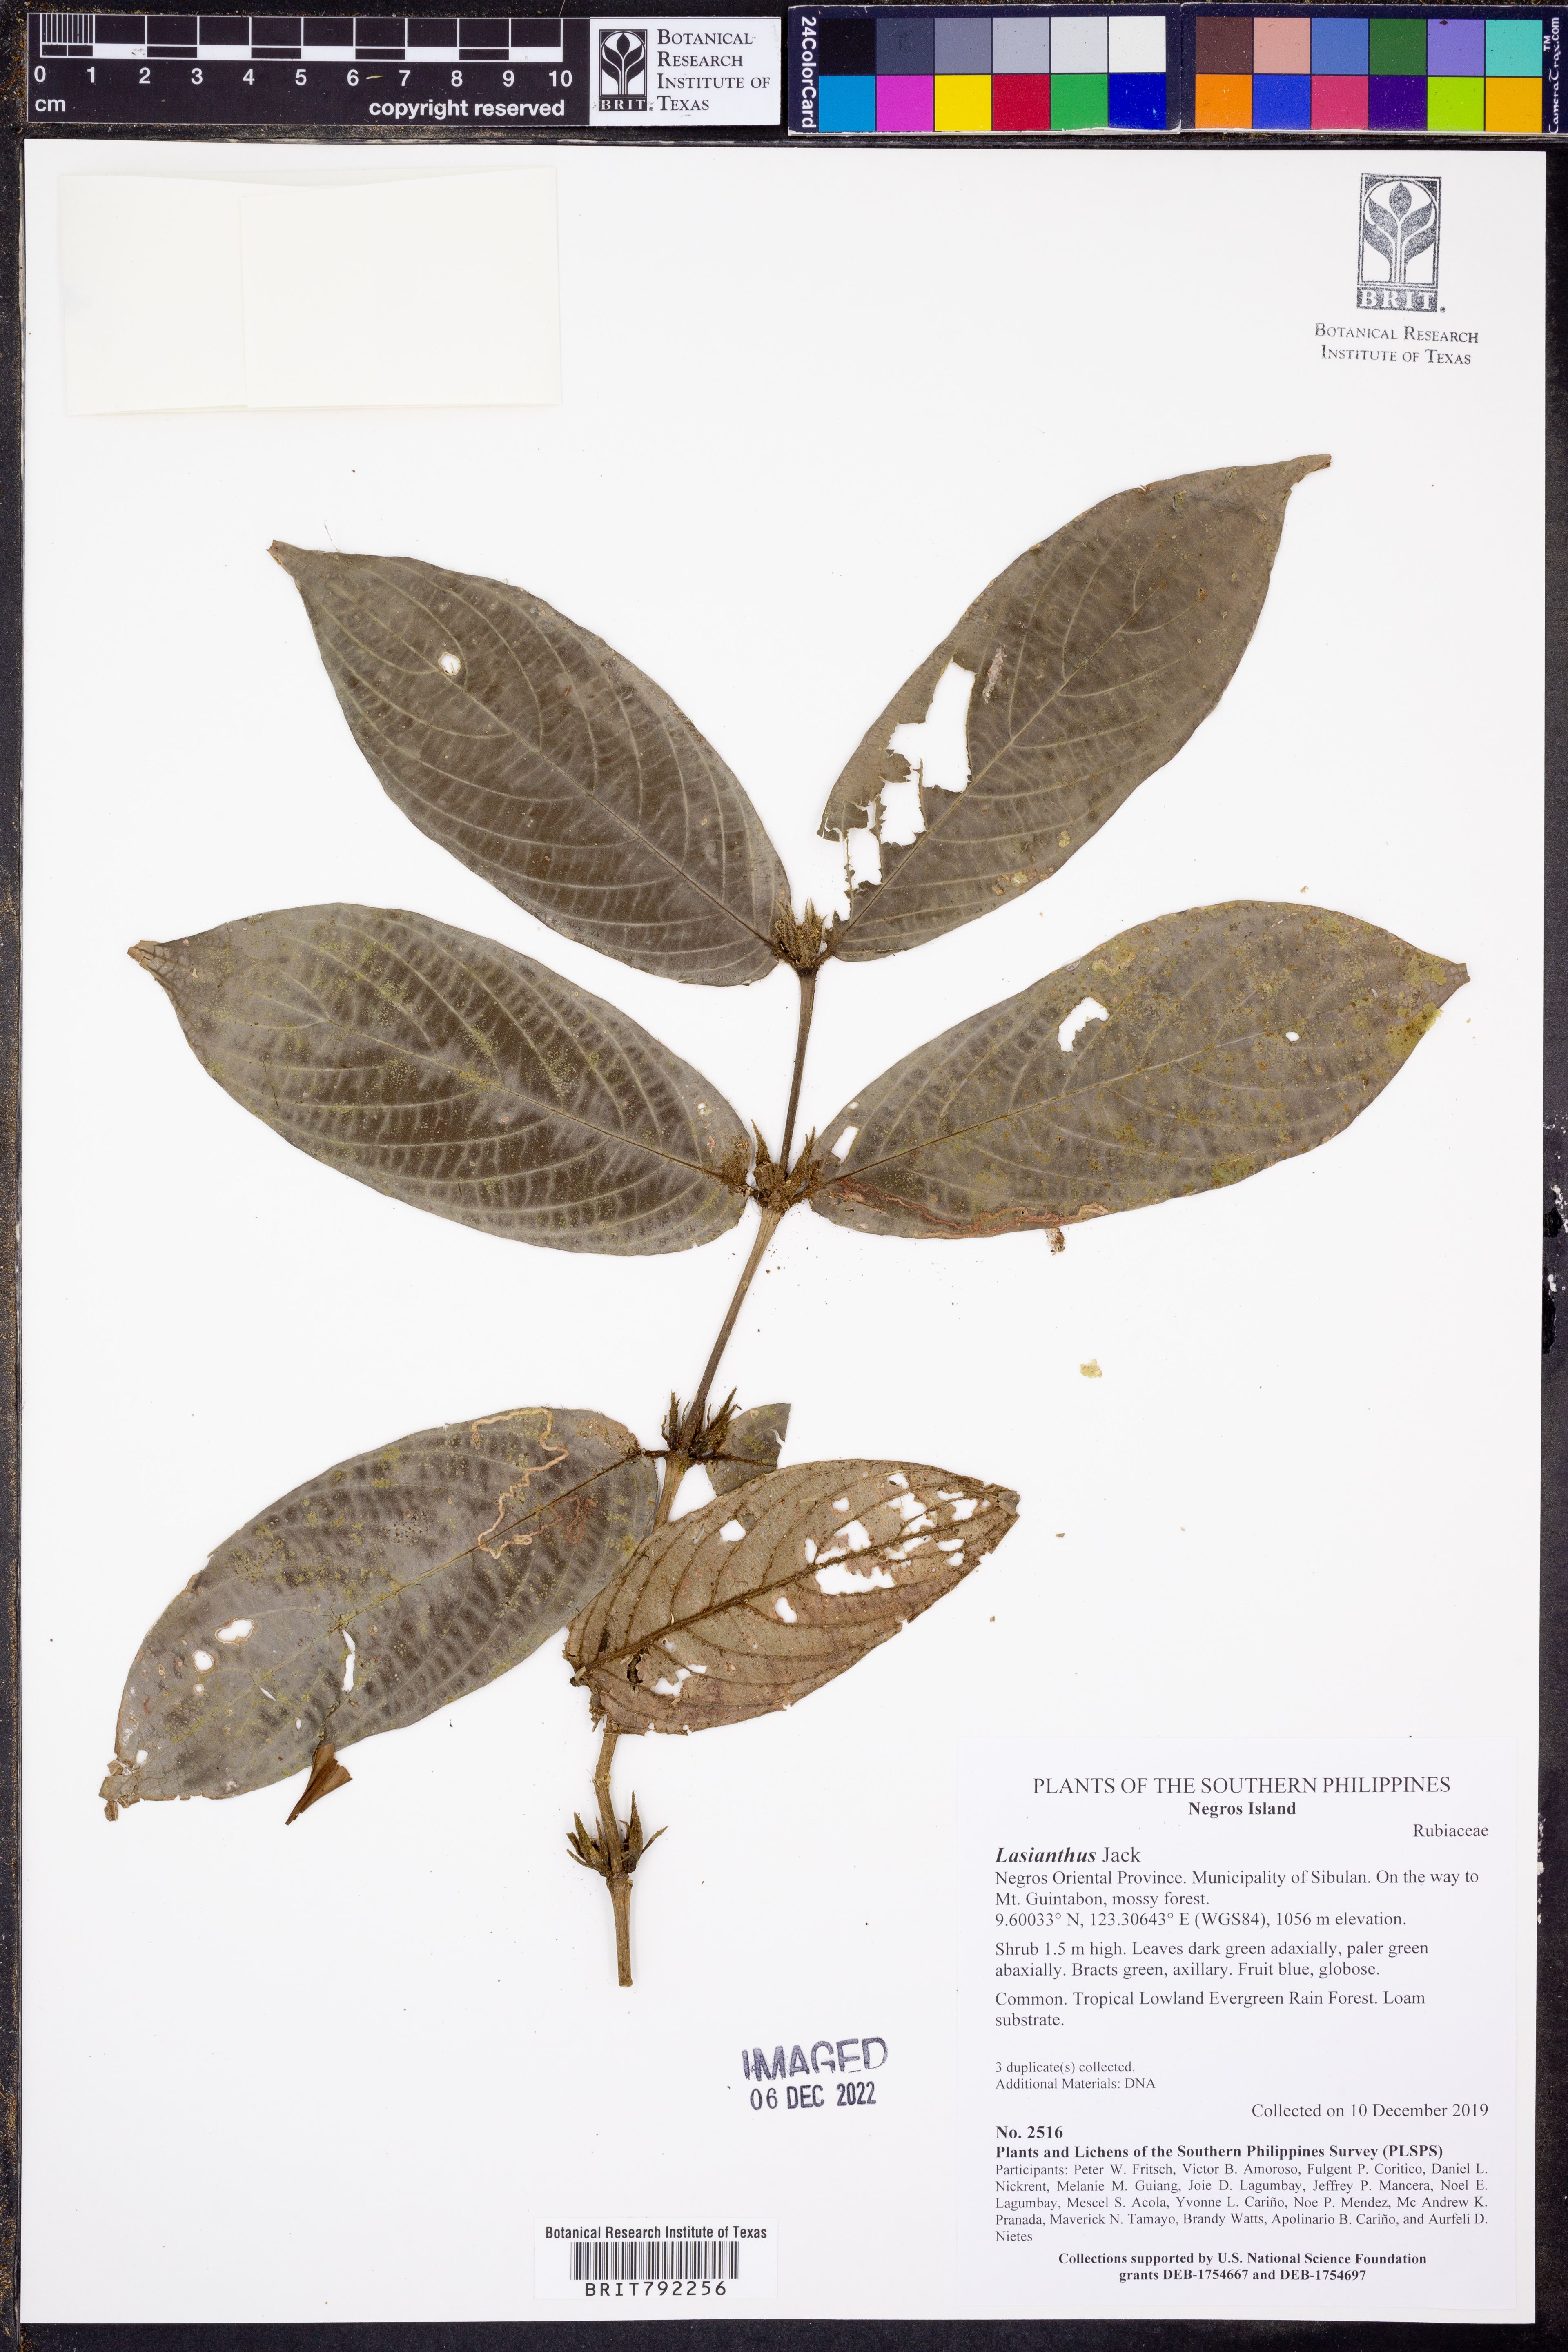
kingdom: Plantae
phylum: Tracheophyta
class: Magnoliopsida
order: Gentianales
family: Rubiaceae
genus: Lasianthus
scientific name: Lasianthus
